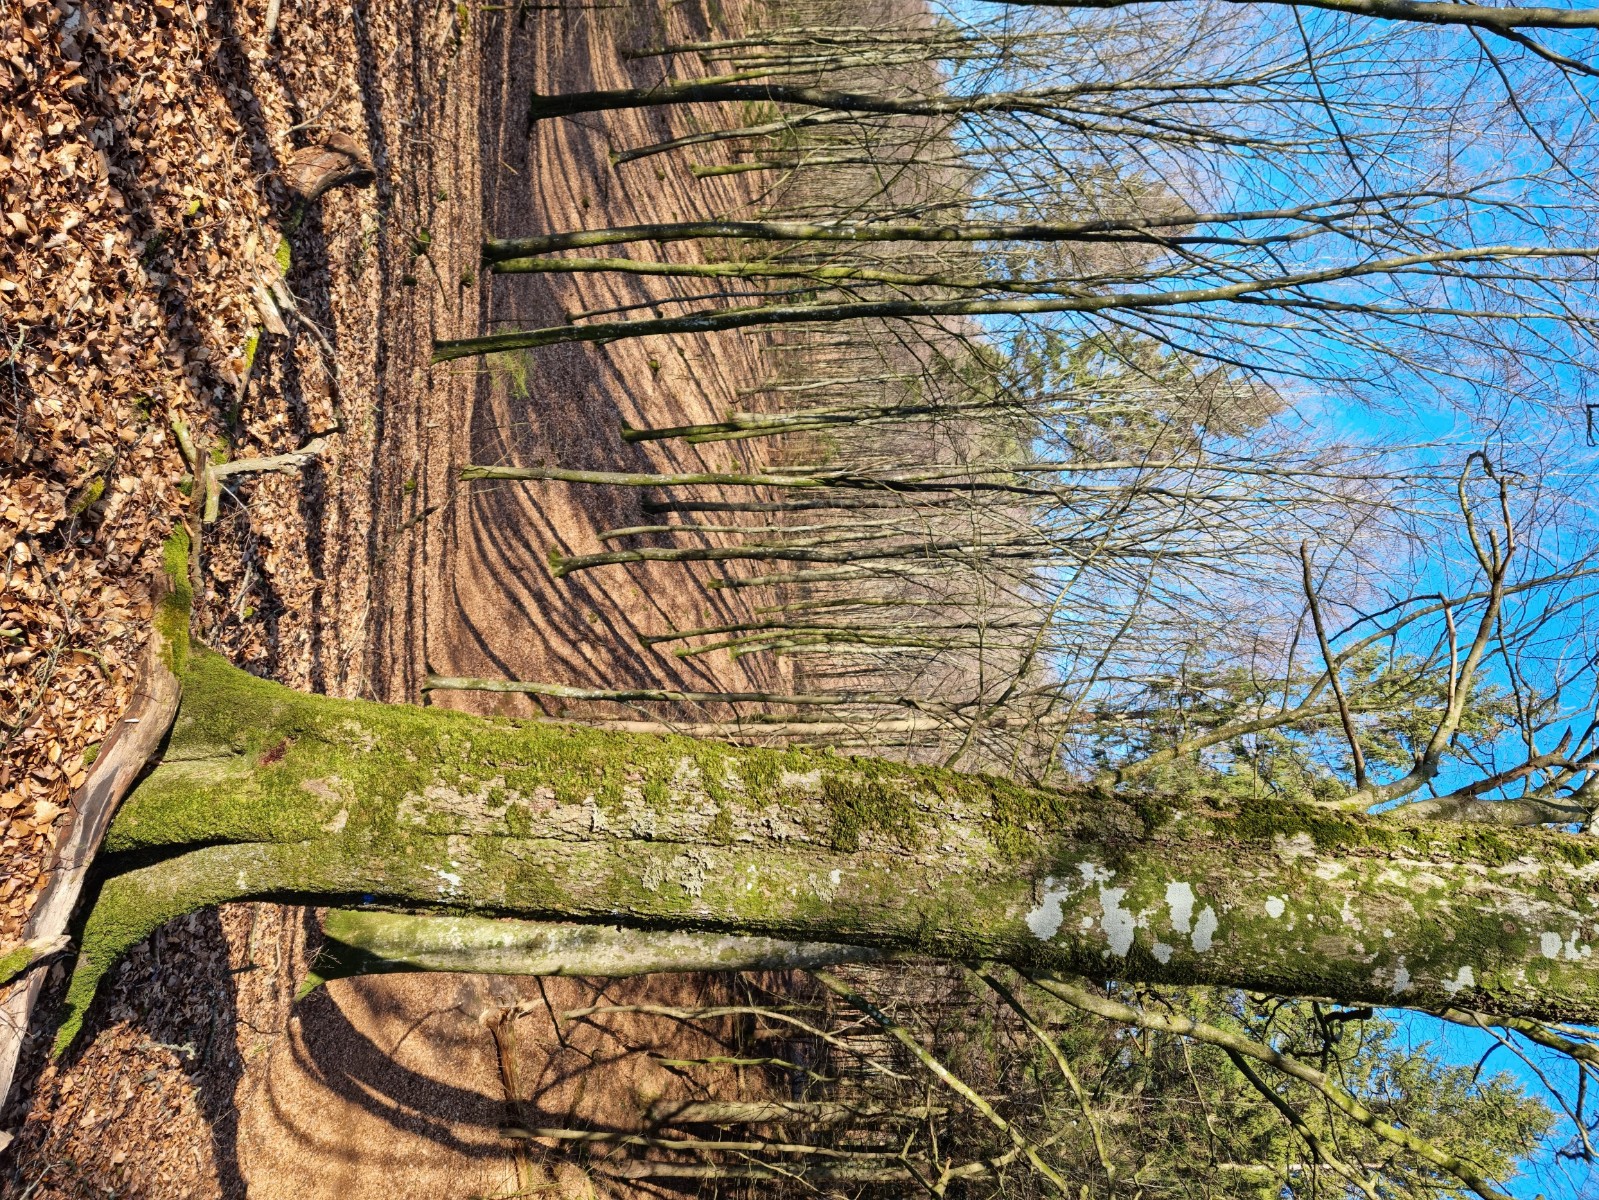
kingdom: Fungi
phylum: Ascomycota
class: Lecanoromycetes
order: Peltigerales
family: Lobariaceae
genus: Lobaria
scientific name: Lobaria pulmonaria
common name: almindelig lungelav
